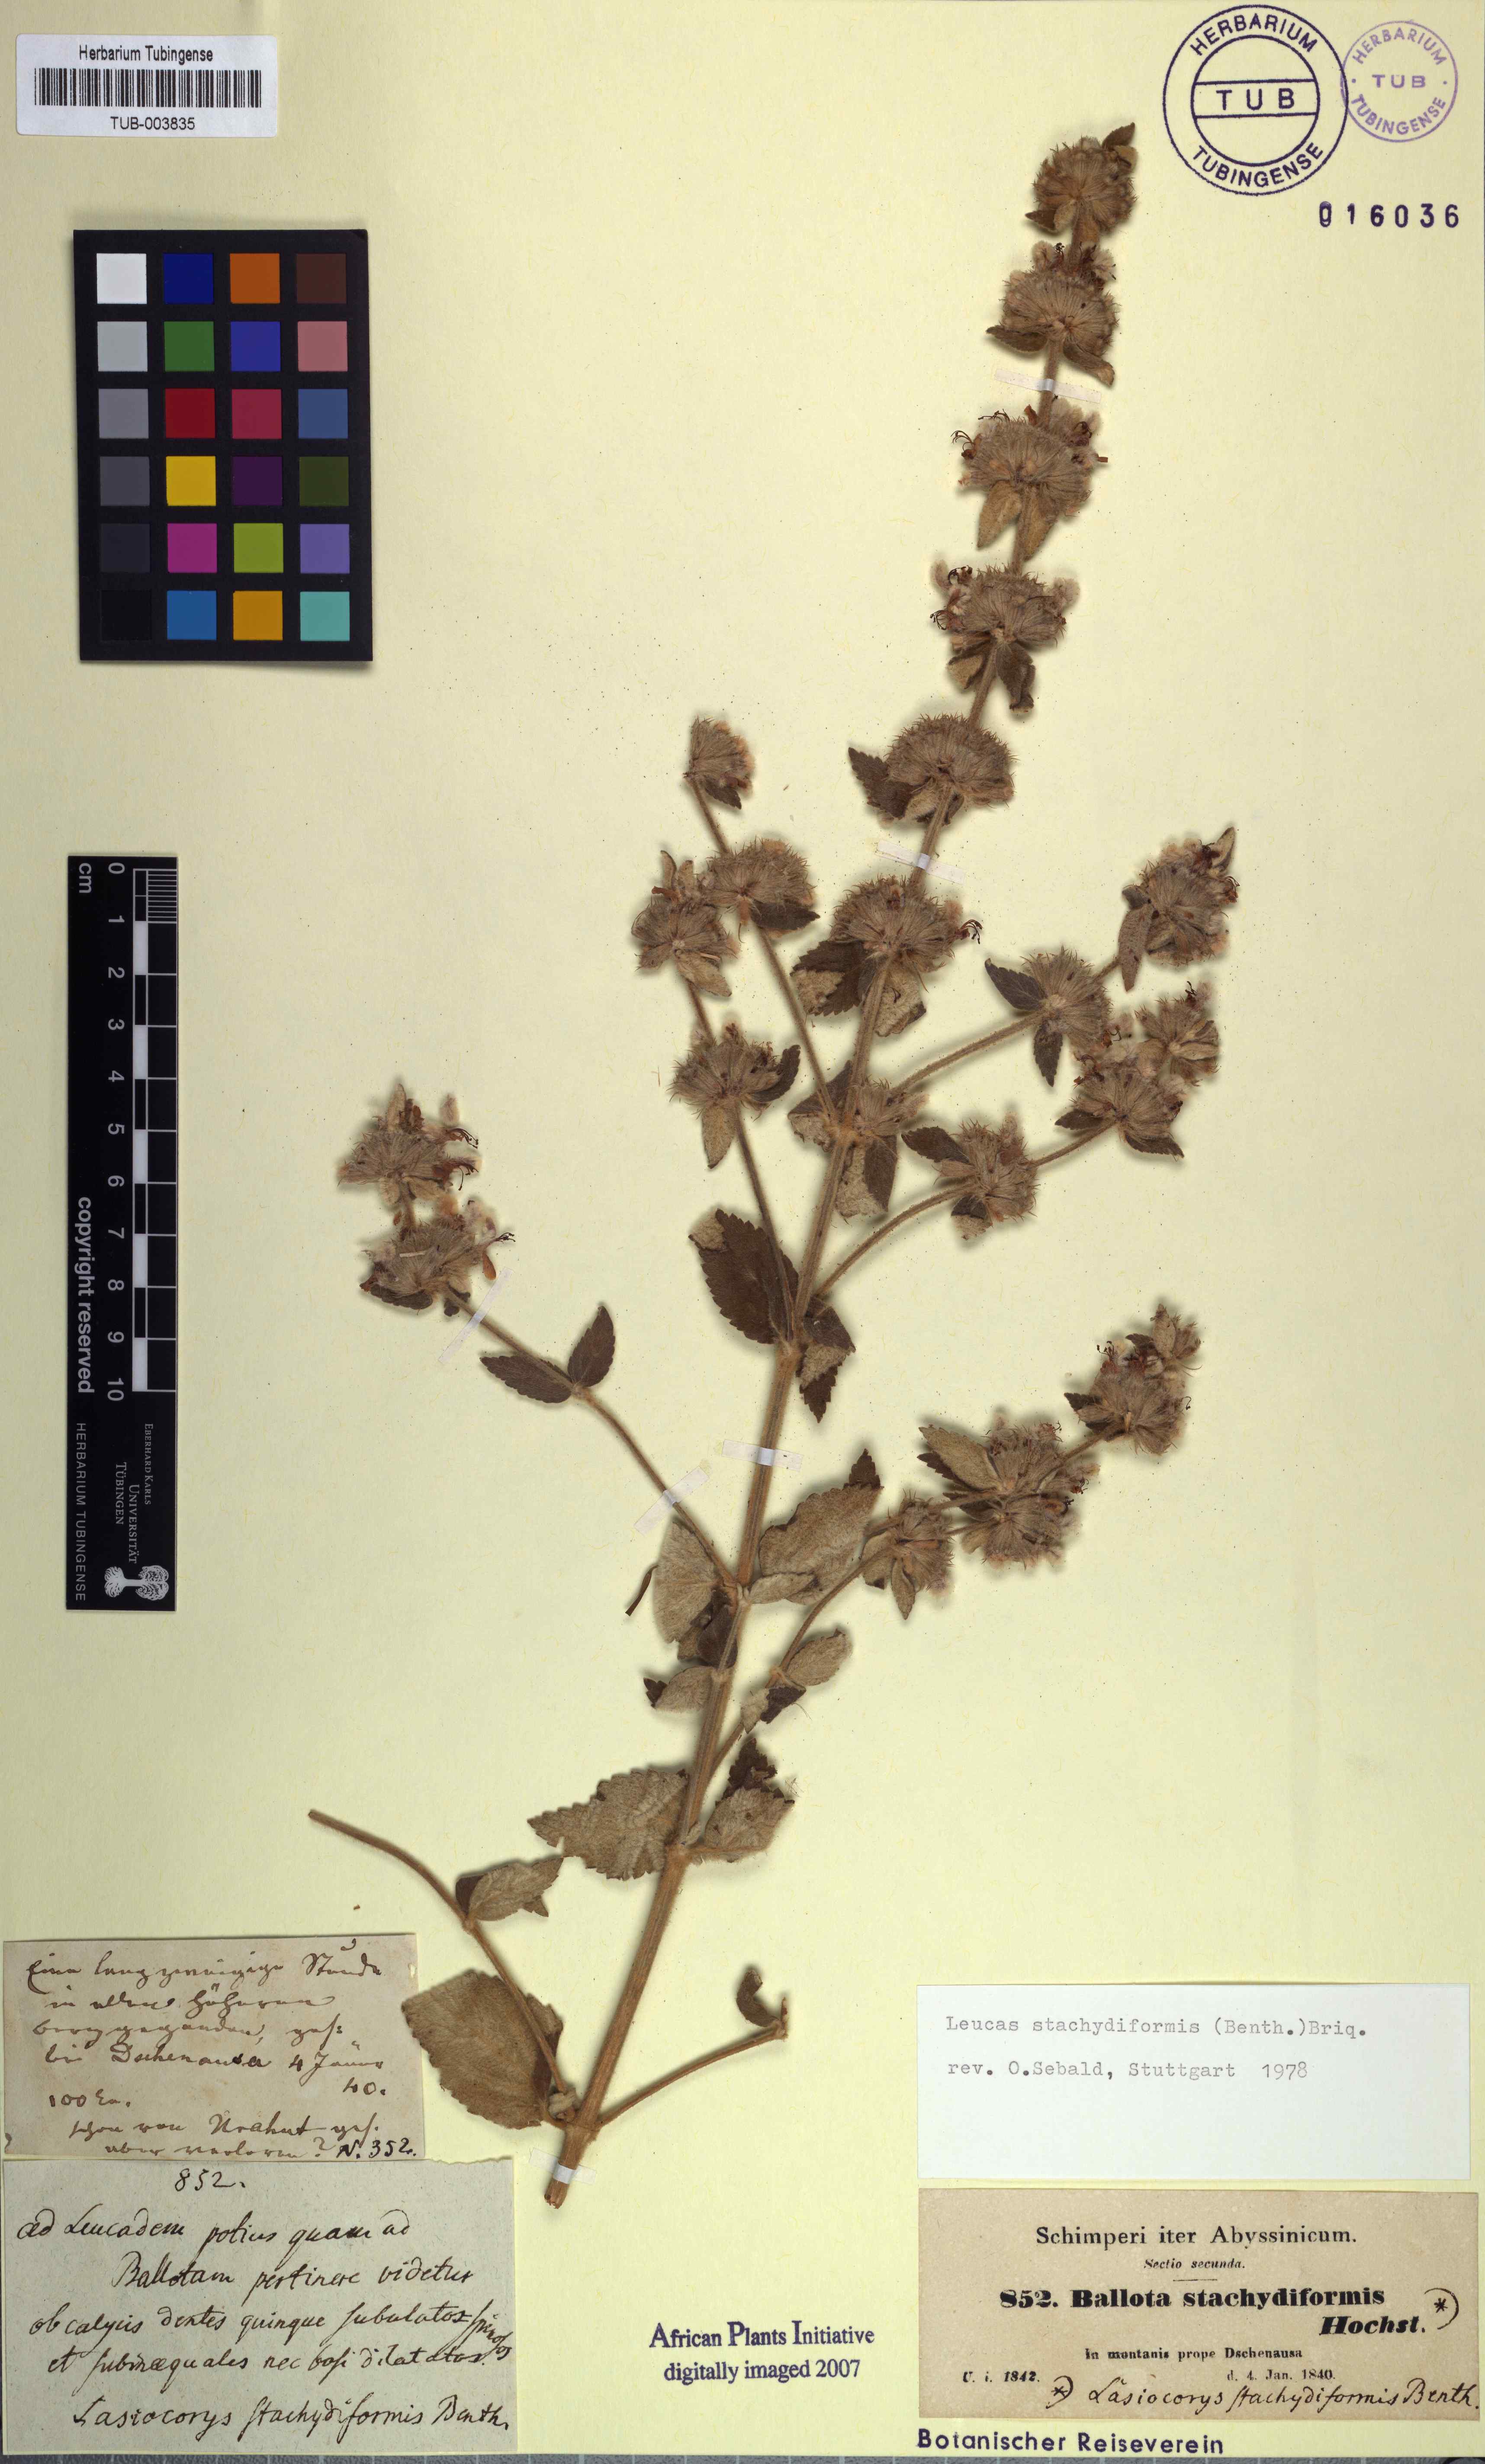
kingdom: Plantae
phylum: Tracheophyta
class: Magnoliopsida
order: Lamiales
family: Lamiaceae
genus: Leucas
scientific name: Leucas stachydiformis
